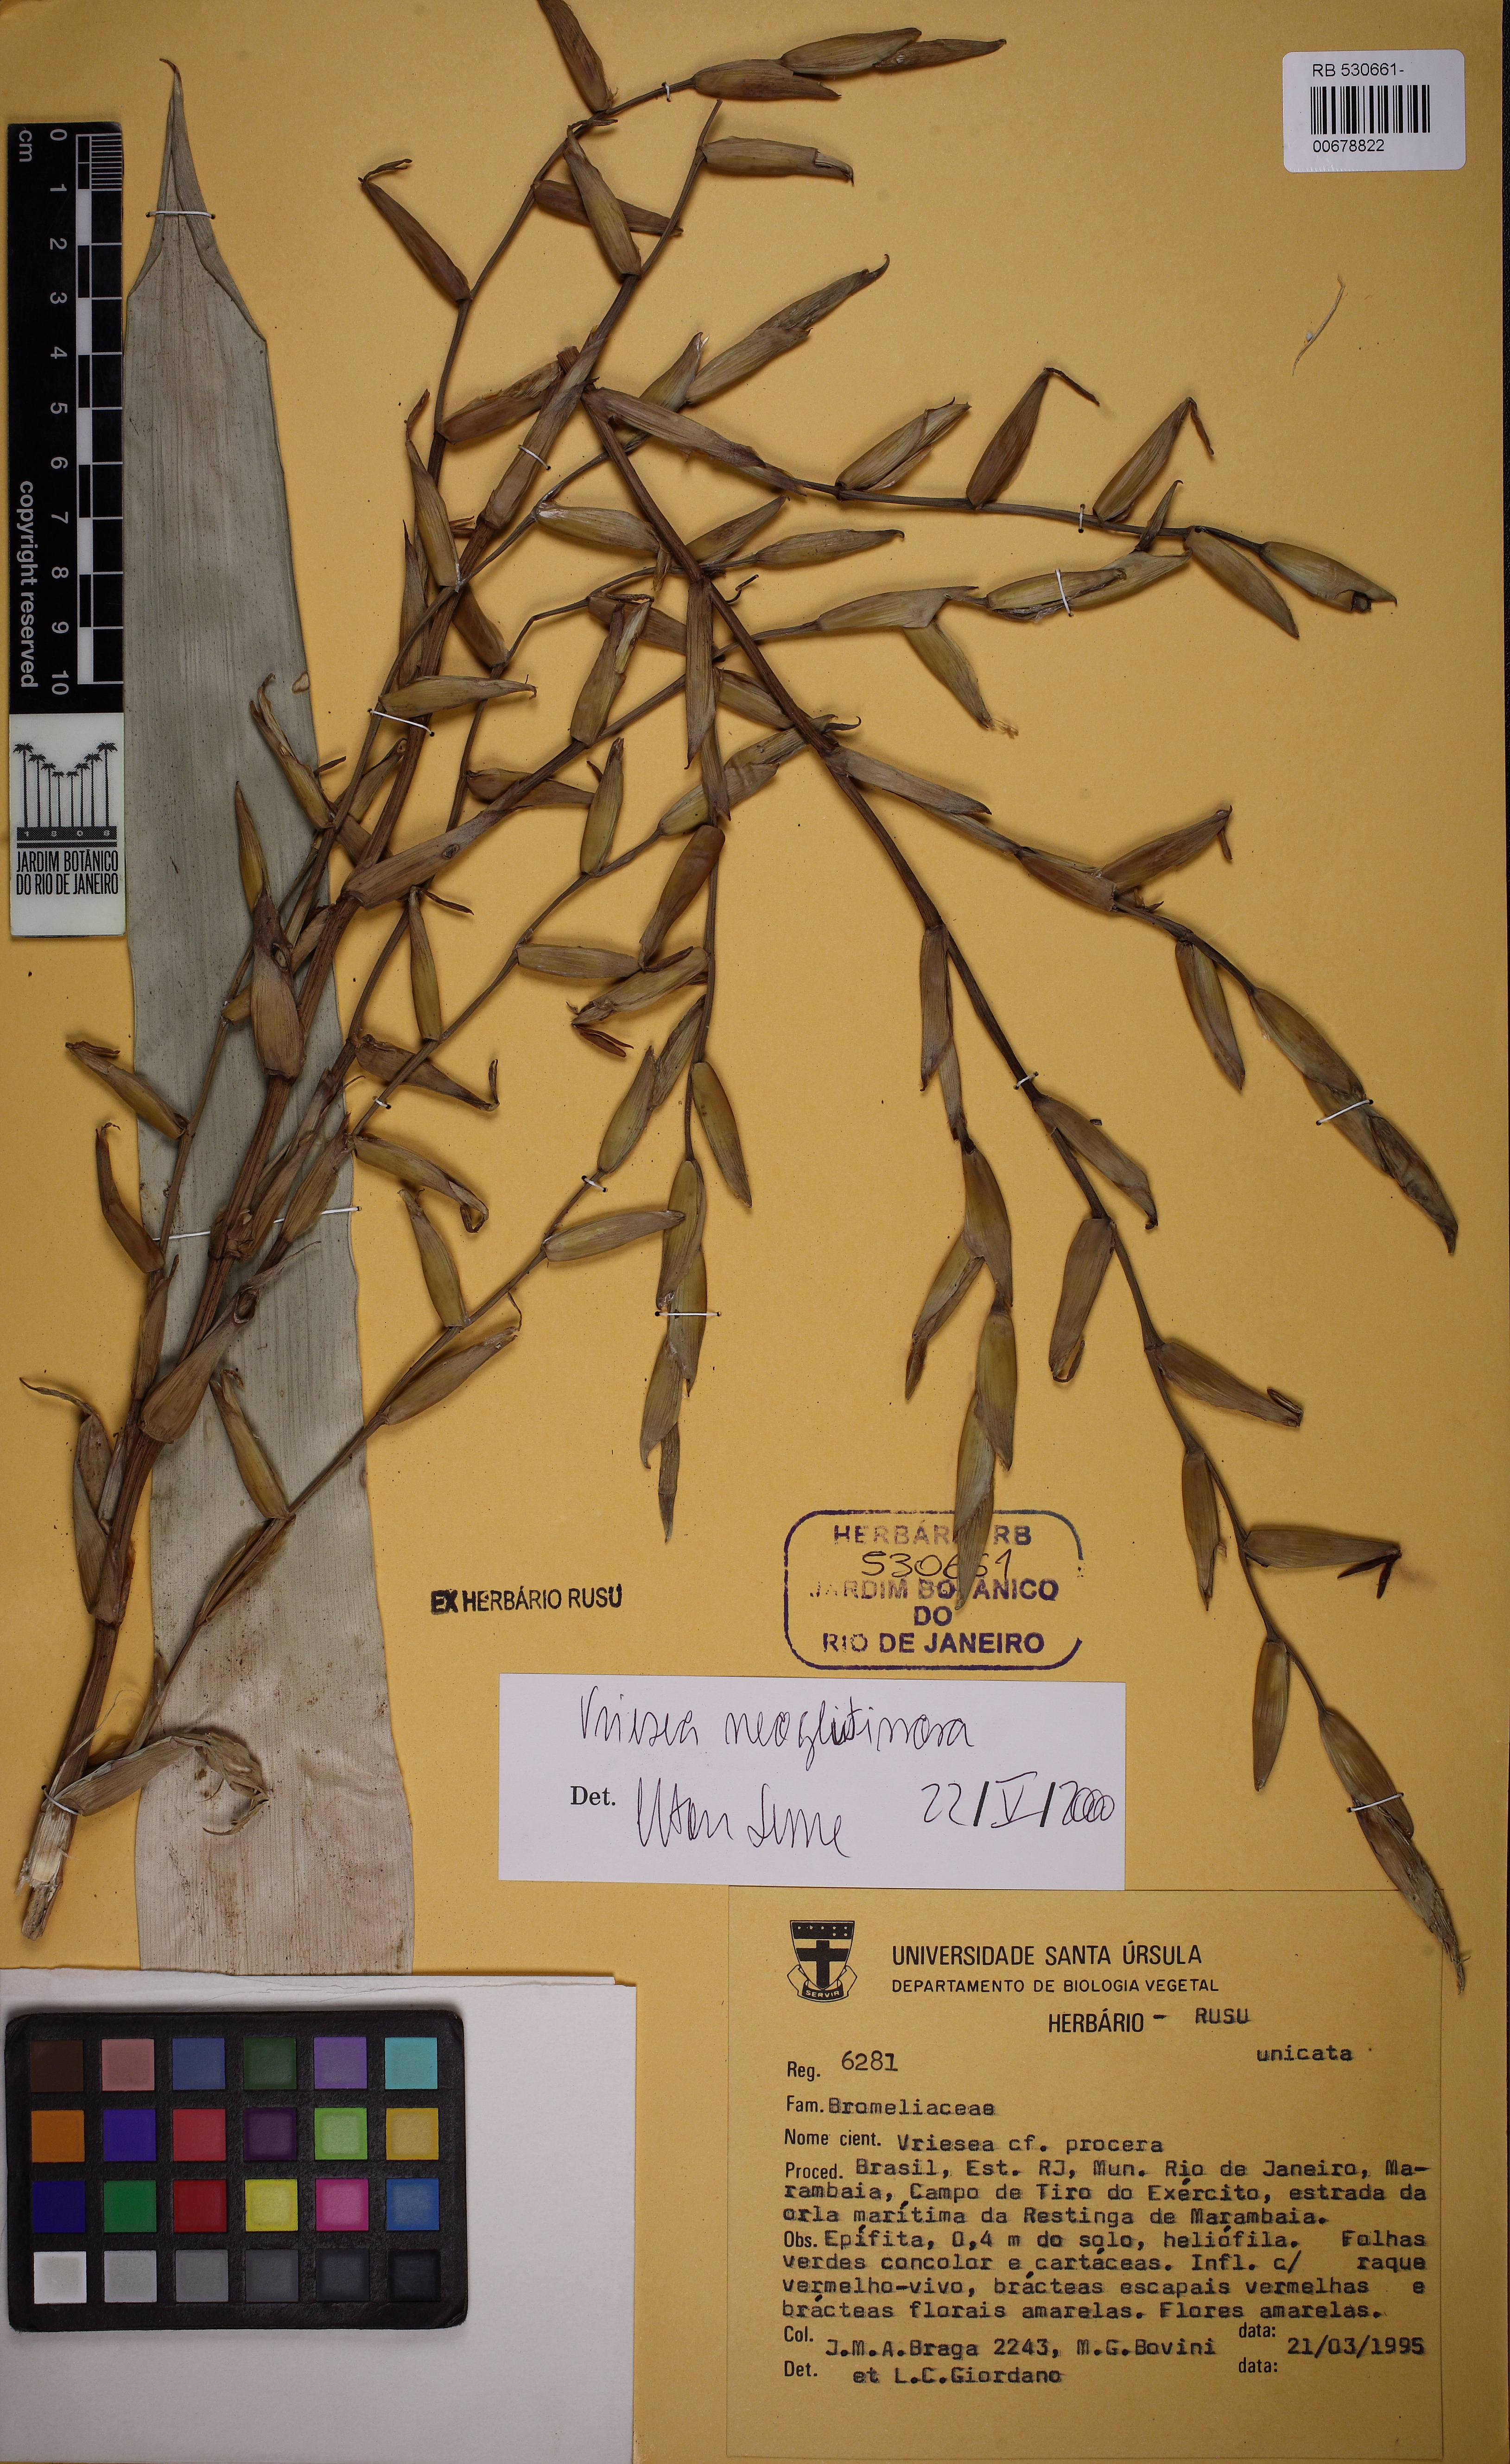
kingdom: Plantae
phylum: Tracheophyta
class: Liliopsida
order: Poales
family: Bromeliaceae
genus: Vriesea
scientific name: Vriesea procera
